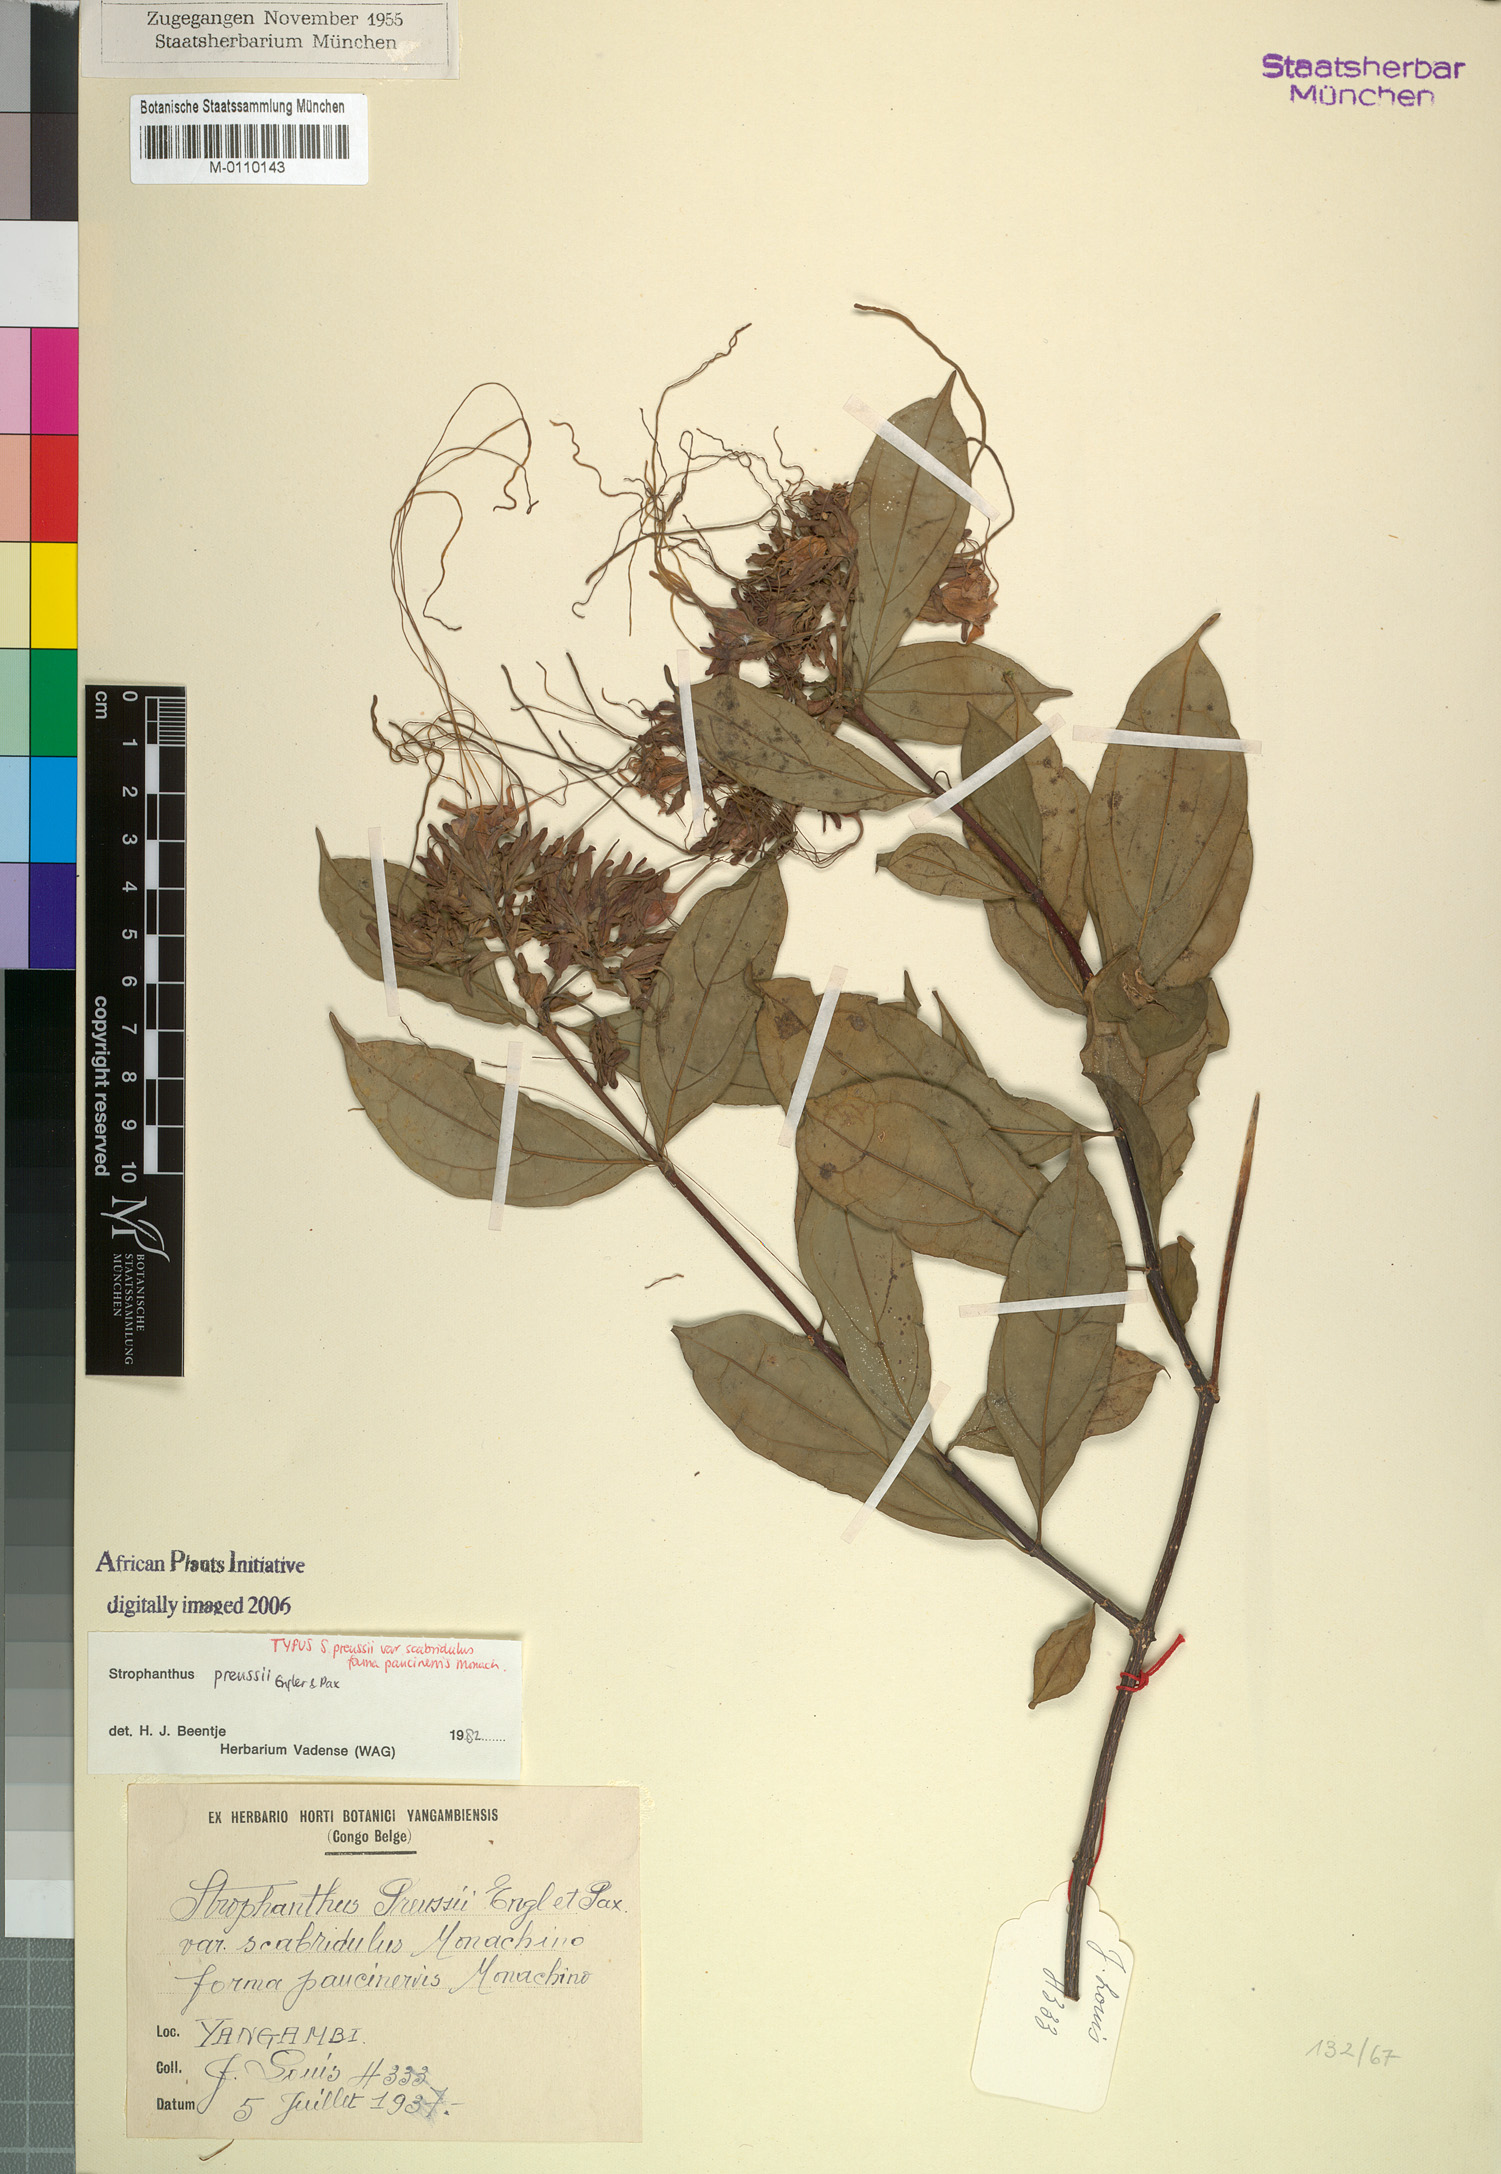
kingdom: Plantae
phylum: Tracheophyta
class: Magnoliopsida
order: Gentianales
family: Apocynaceae
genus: Strophanthus
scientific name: Strophanthus preussii
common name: Medisa-flower
